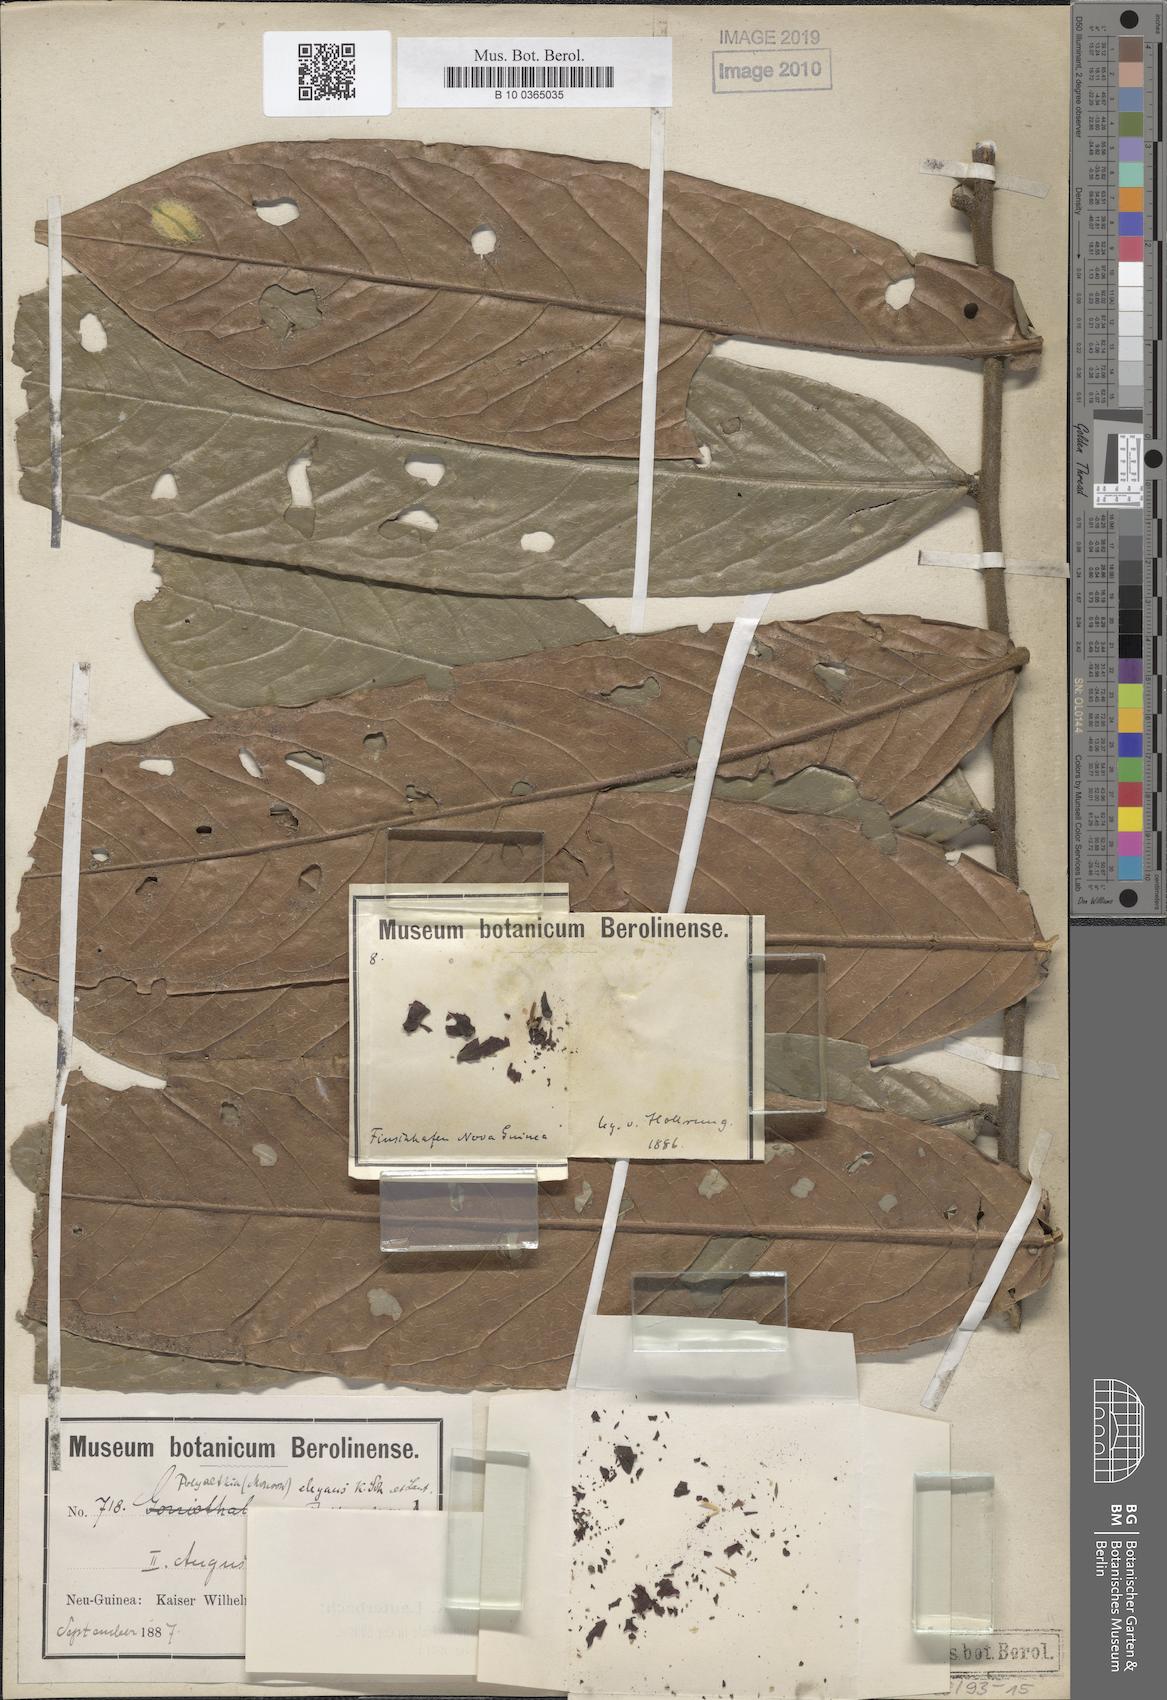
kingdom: Plantae
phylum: Tracheophyta
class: Magnoliopsida
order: Magnoliales
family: Annonaceae
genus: Polyalthia
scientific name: Polyalthia elegans
